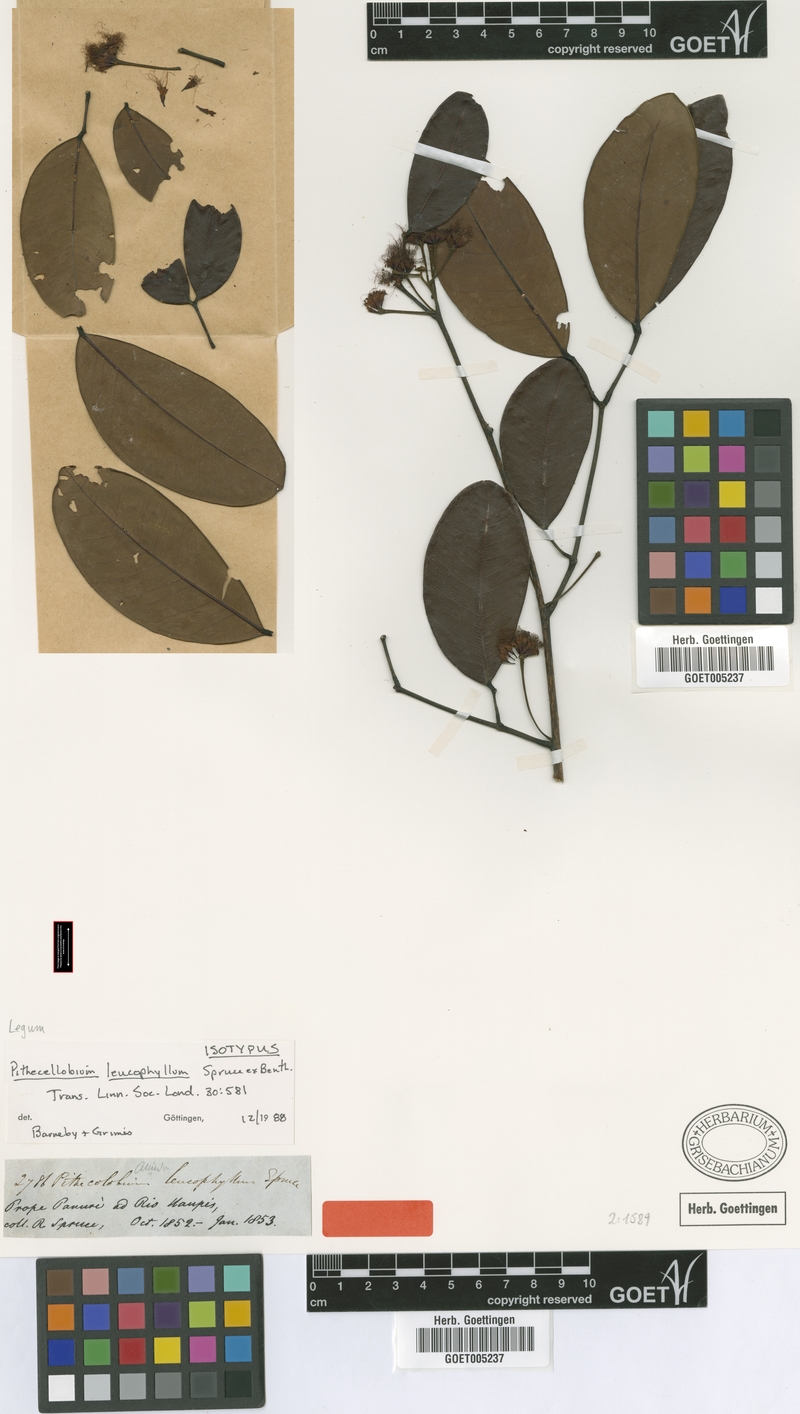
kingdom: Plantae
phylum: Tracheophyta
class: Magnoliopsida
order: Fabales
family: Fabaceae
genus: Jupunba
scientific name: Jupunba leucophylla
